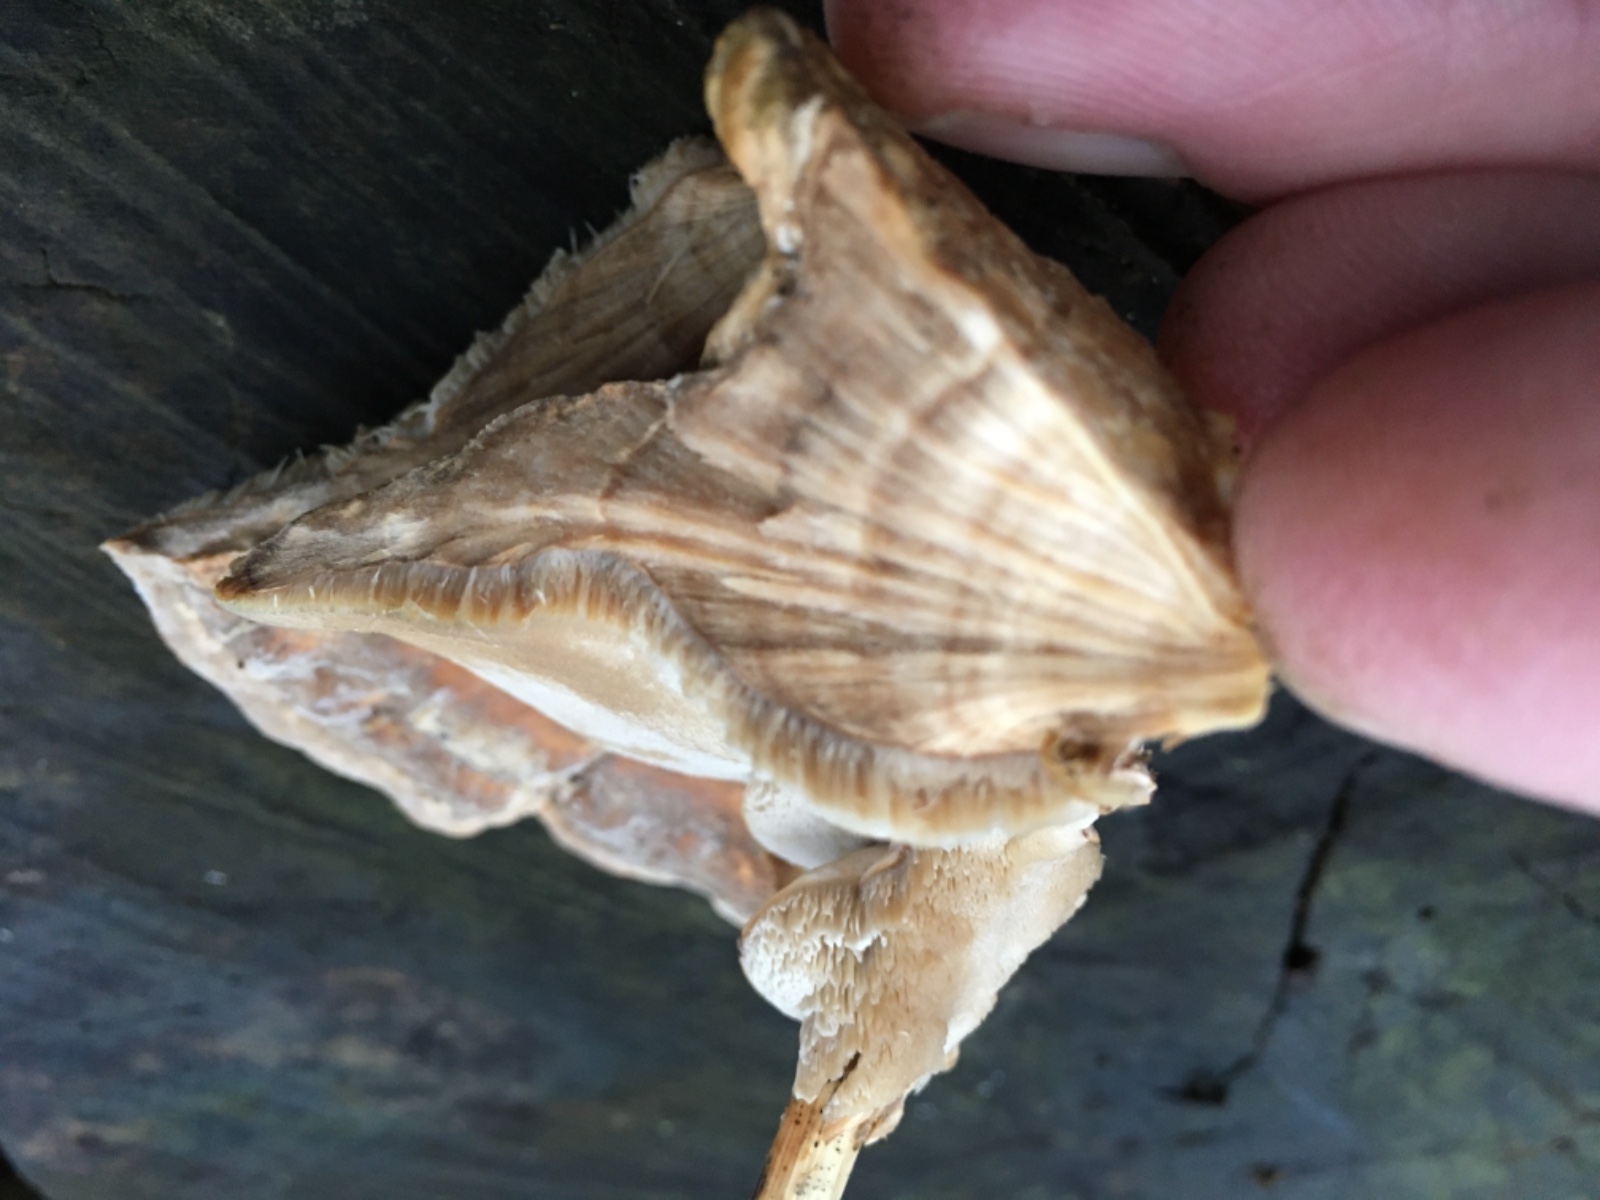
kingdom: Fungi
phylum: Basidiomycota
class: Agaricomycetes
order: Polyporales
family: Phanerochaetaceae
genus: Bjerkandera
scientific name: Bjerkandera fumosa
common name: grågul sodporesvamp
